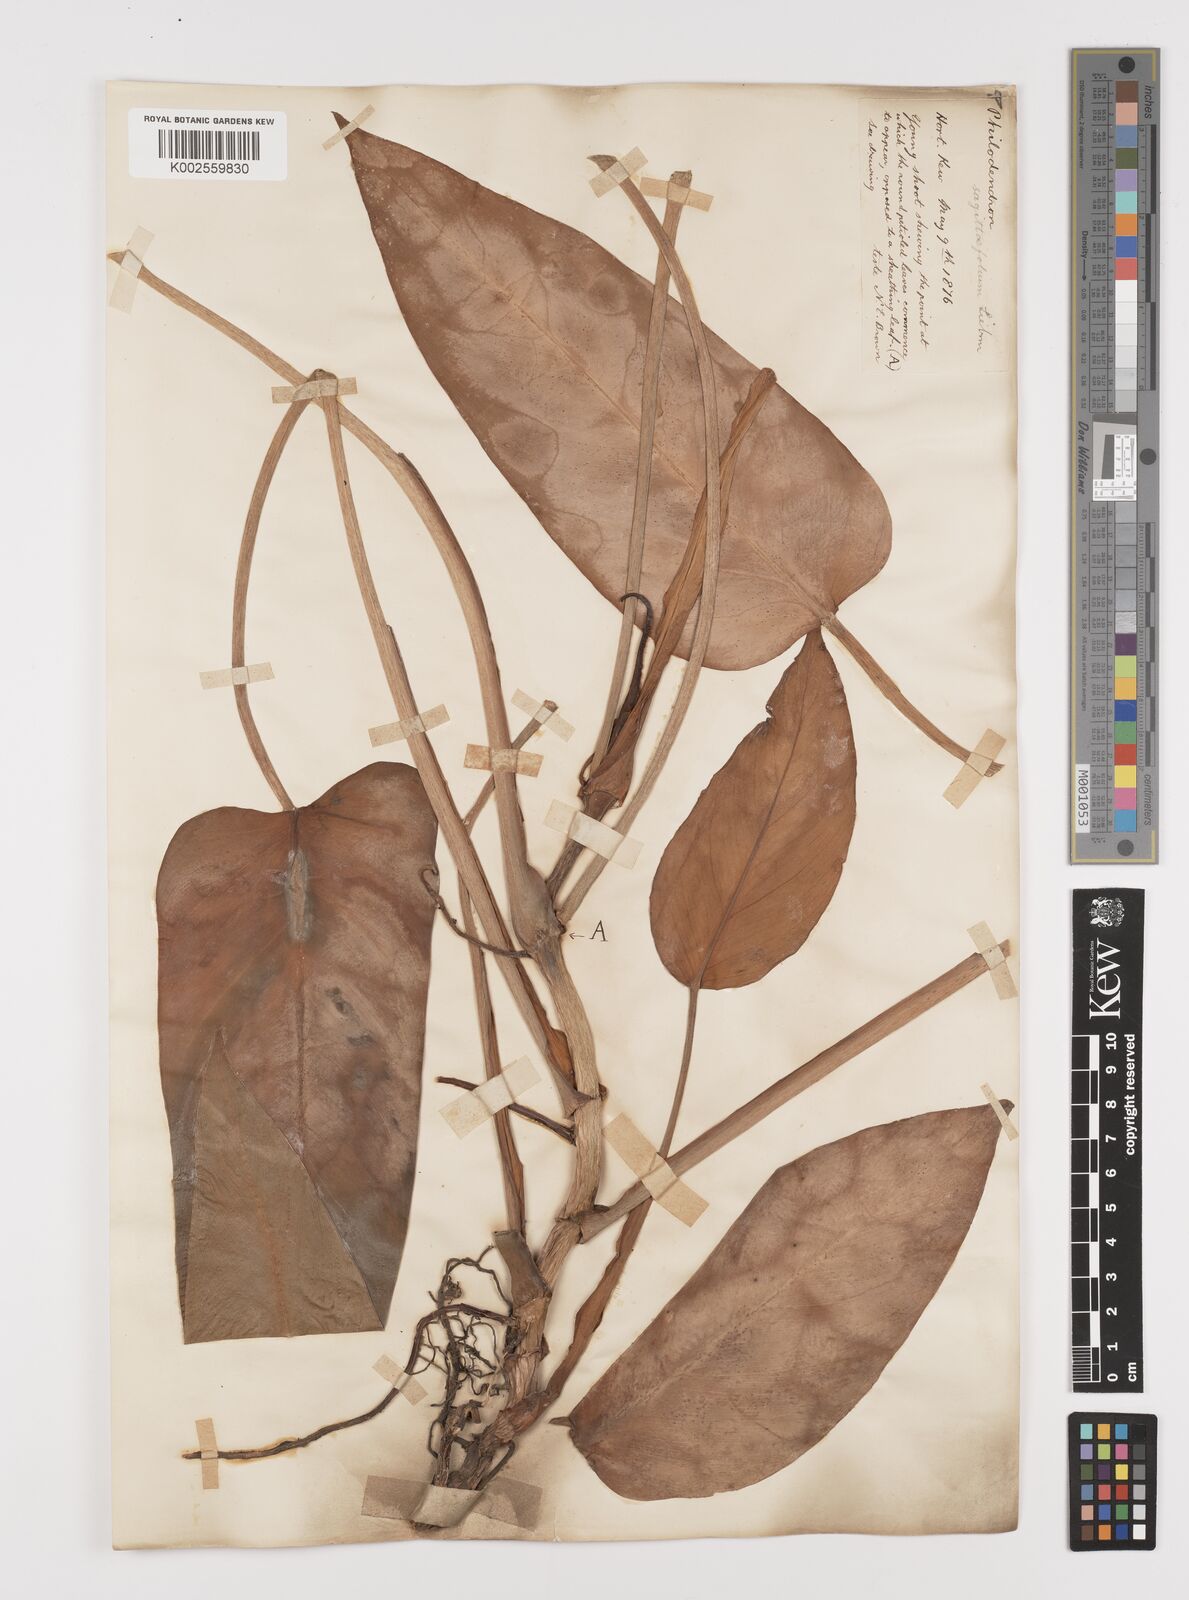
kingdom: Plantae
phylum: Tracheophyta
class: Liliopsida
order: Alismatales
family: Araceae
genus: Philodendron
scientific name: Philodendron sagittifolium
